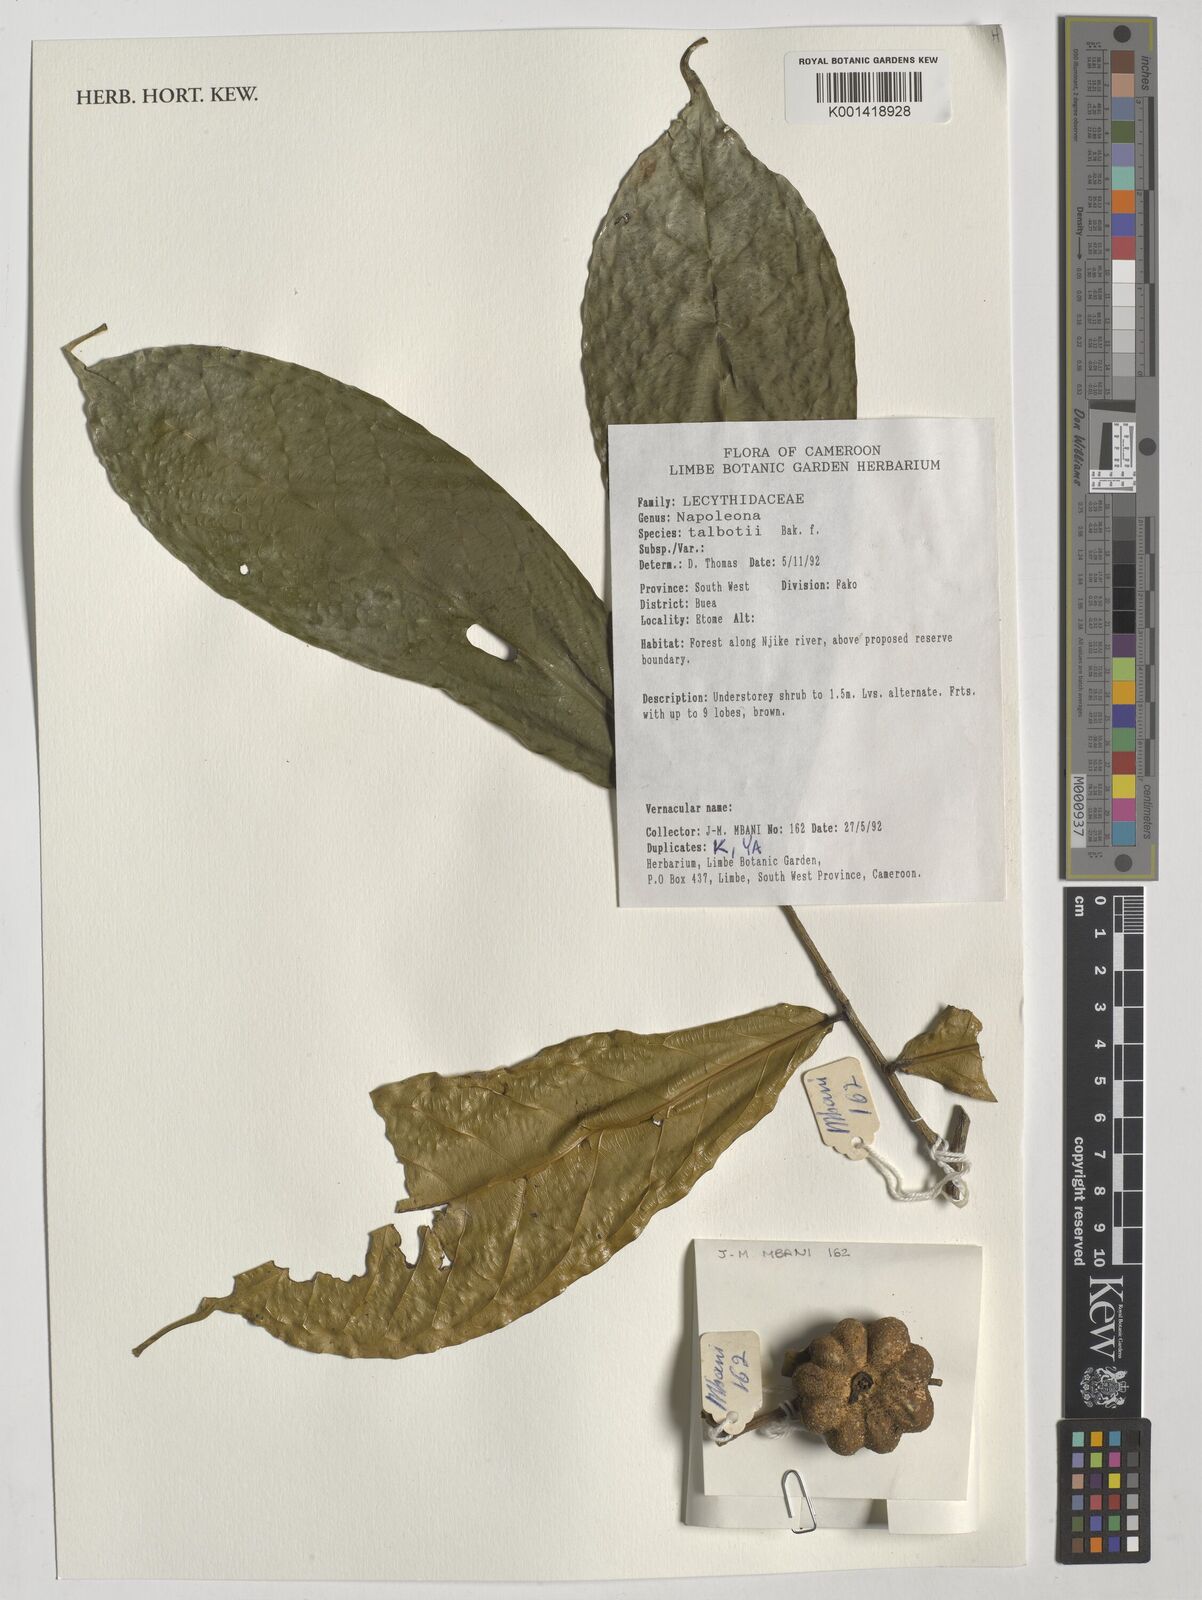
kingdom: Plantae
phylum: Tracheophyta
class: Magnoliopsida
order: Ericales
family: Lecythidaceae
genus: Napoleonaea
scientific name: Napoleonaea
